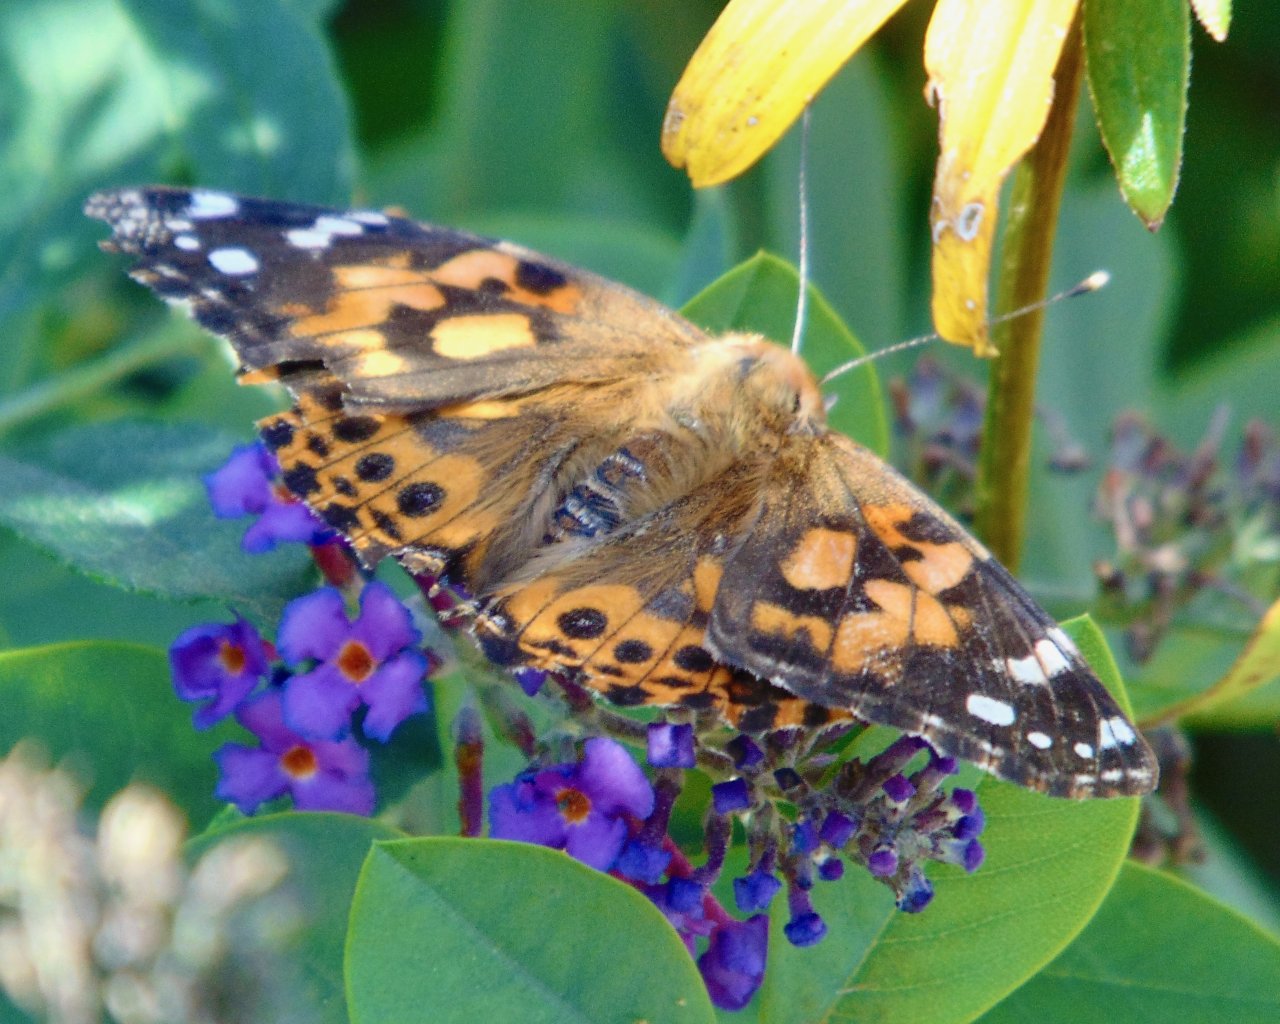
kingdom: Animalia
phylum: Arthropoda
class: Insecta
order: Lepidoptera
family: Nymphalidae
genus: Vanessa
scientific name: Vanessa cardui
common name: Painted Lady
